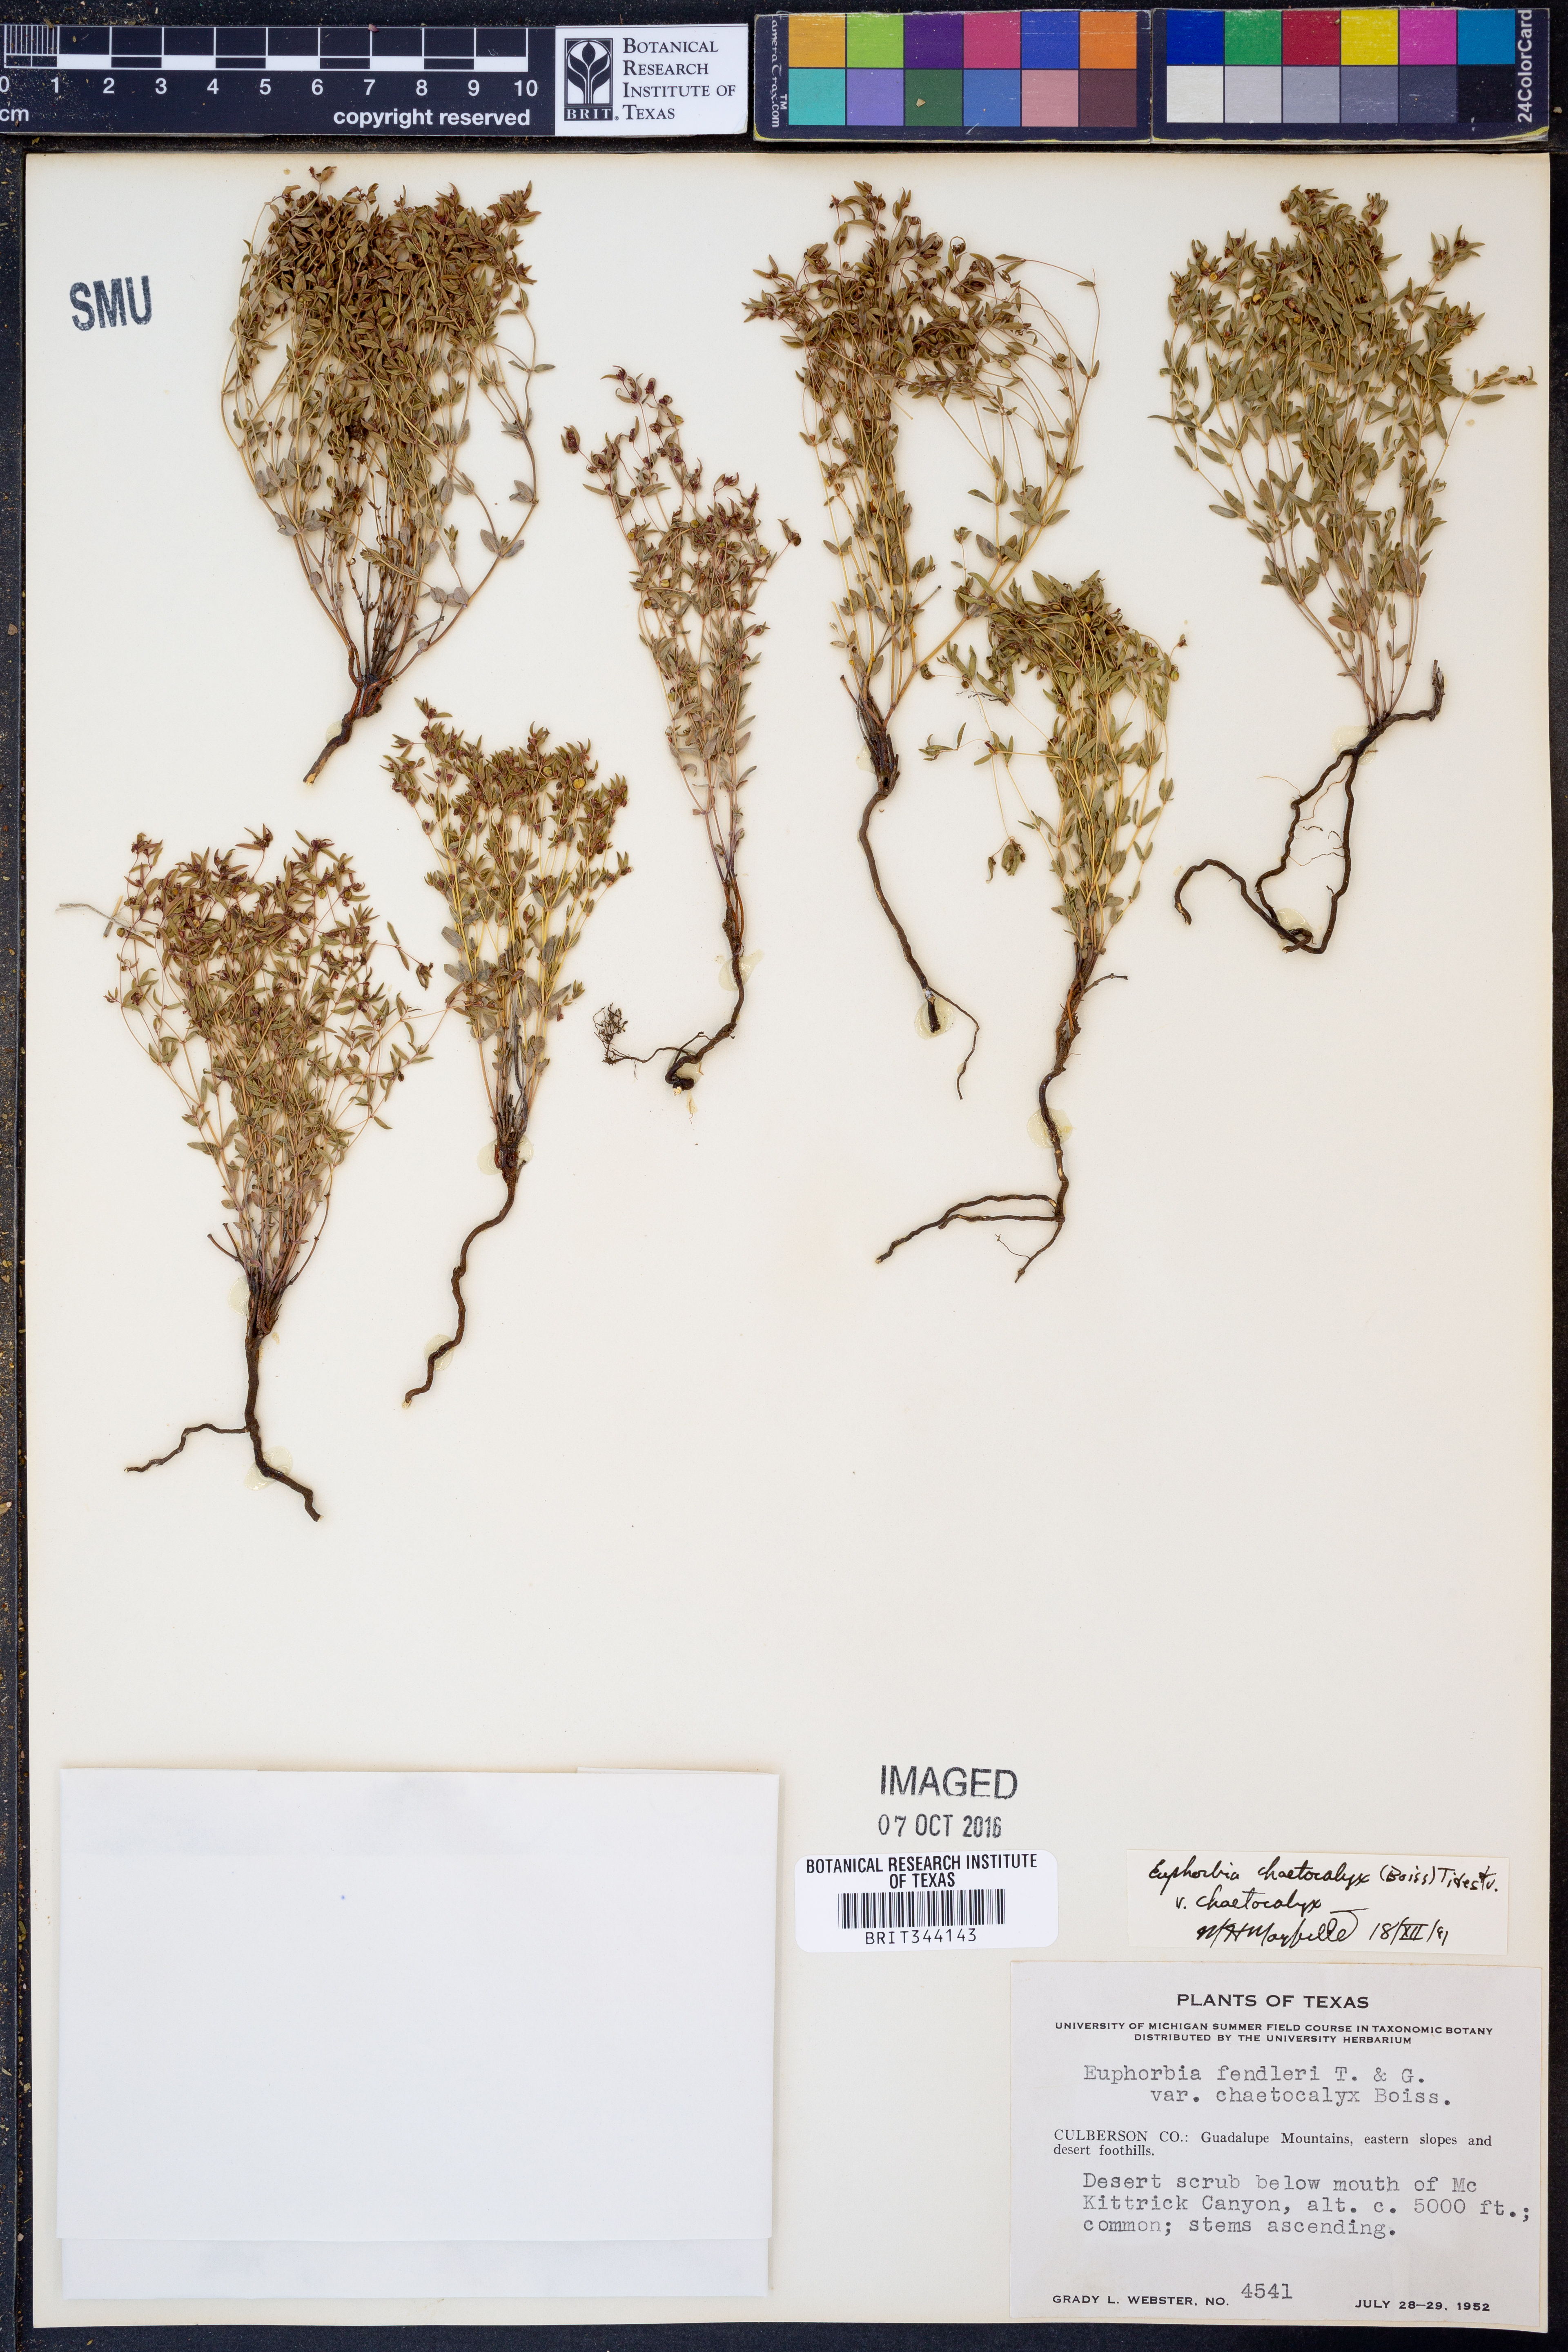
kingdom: Plantae
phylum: Tracheophyta
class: Magnoliopsida
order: Malpighiales
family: Euphorbiaceae
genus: Euphorbia
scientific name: Euphorbia chaetocalyx
